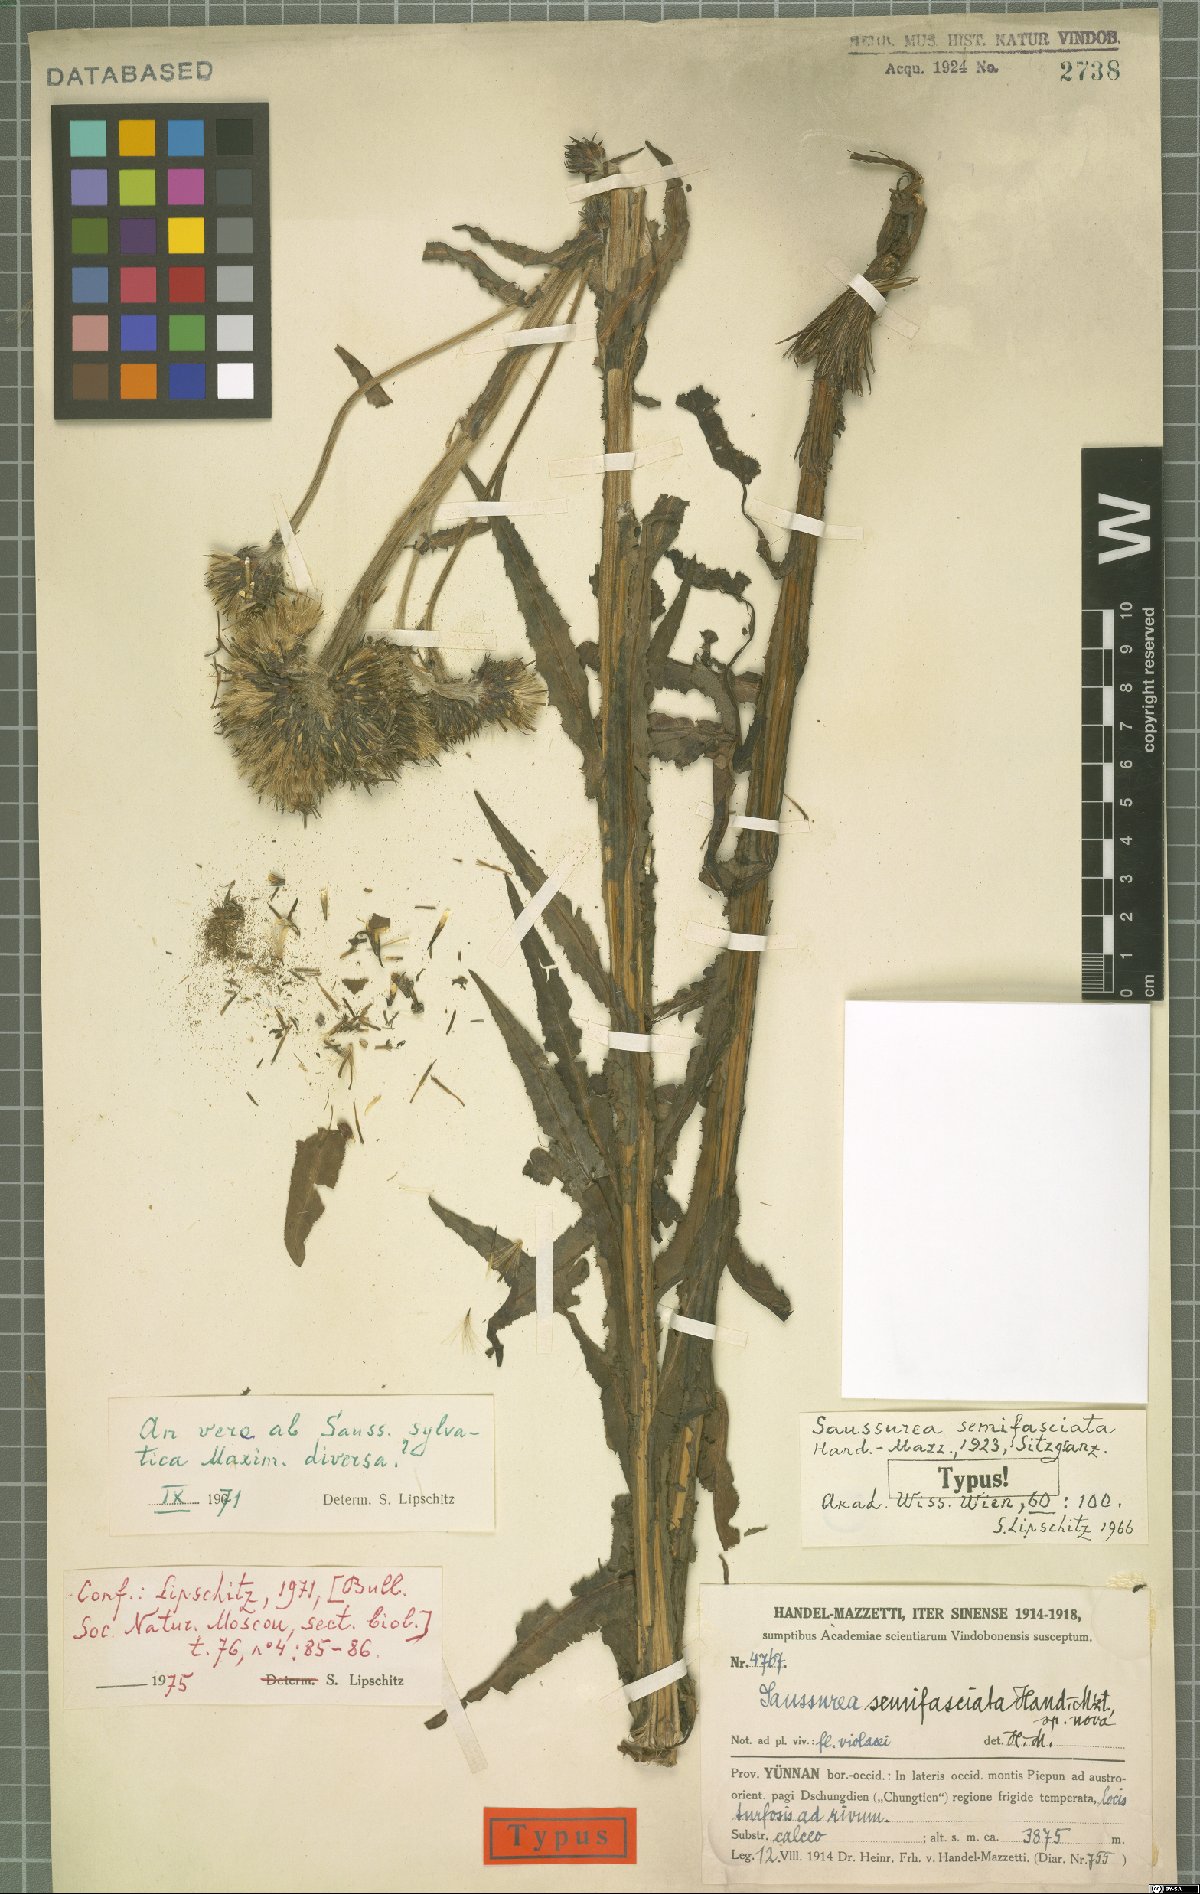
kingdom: Plantae
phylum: Tracheophyta
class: Magnoliopsida
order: Asterales
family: Asteraceae
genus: Saussurea
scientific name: Saussurea sylvatica
